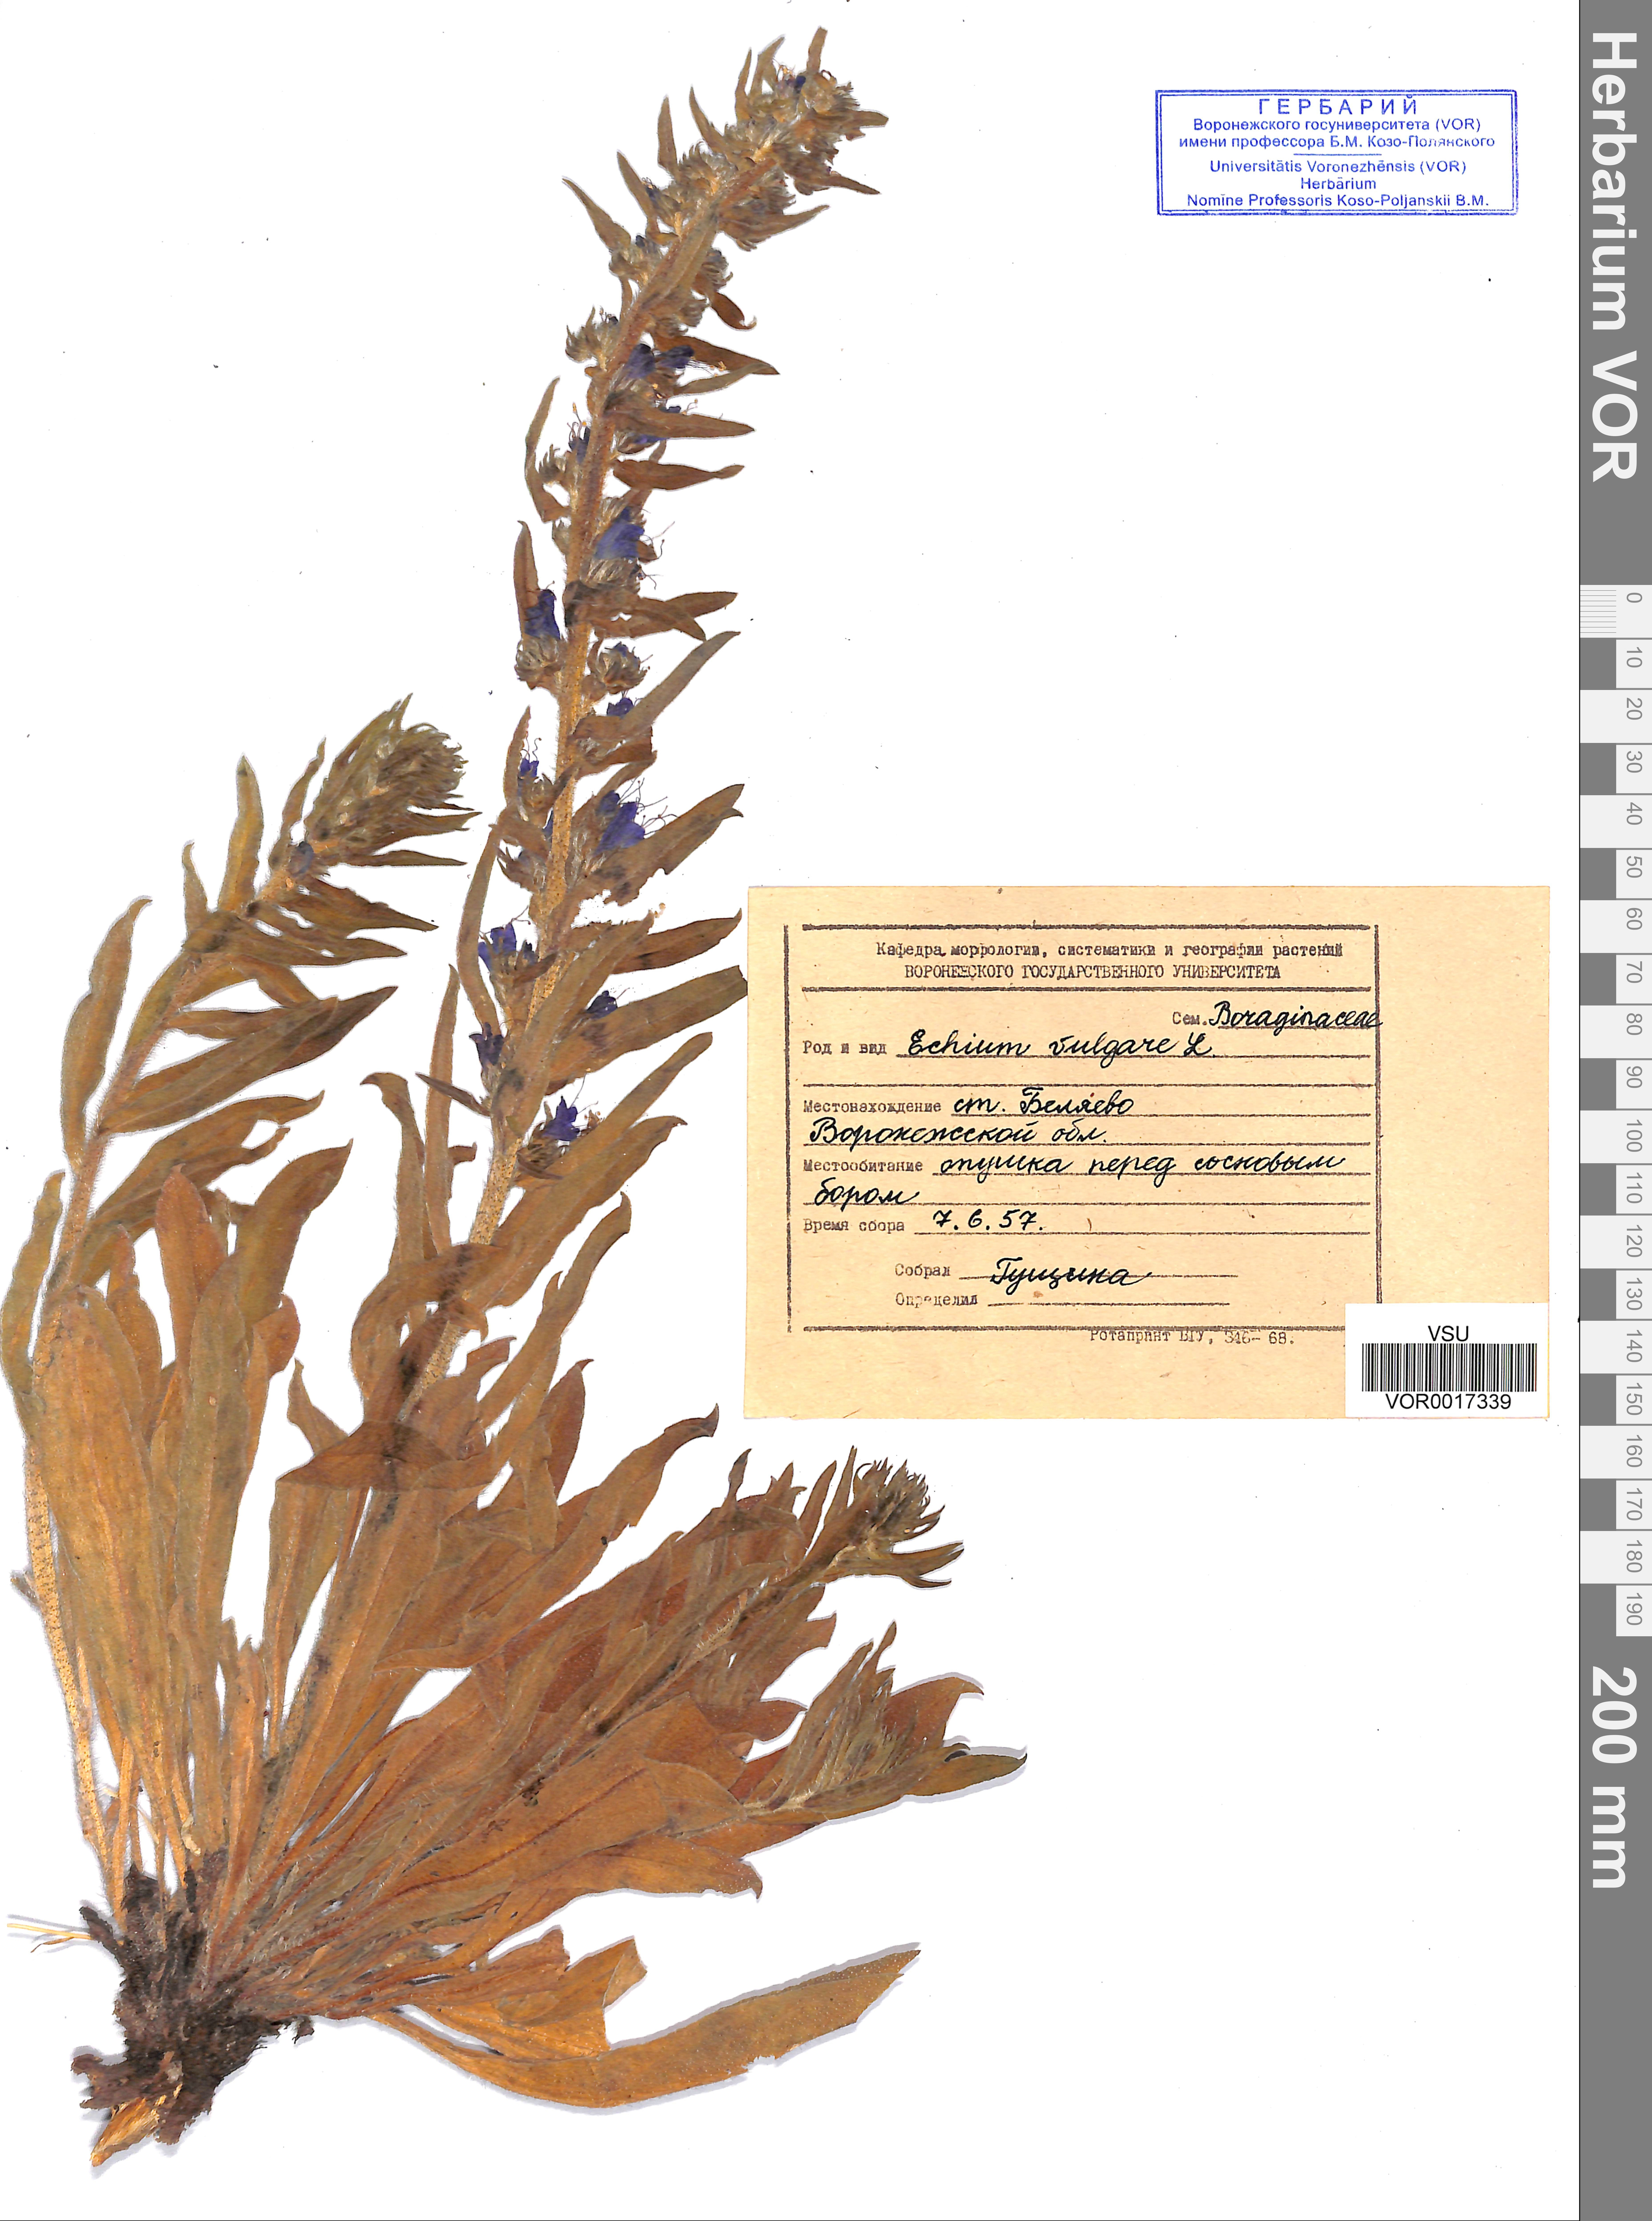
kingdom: Plantae
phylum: Tracheophyta
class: Magnoliopsida
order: Boraginales
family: Boraginaceae
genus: Echium
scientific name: Echium vulgare
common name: Common viper's bugloss
